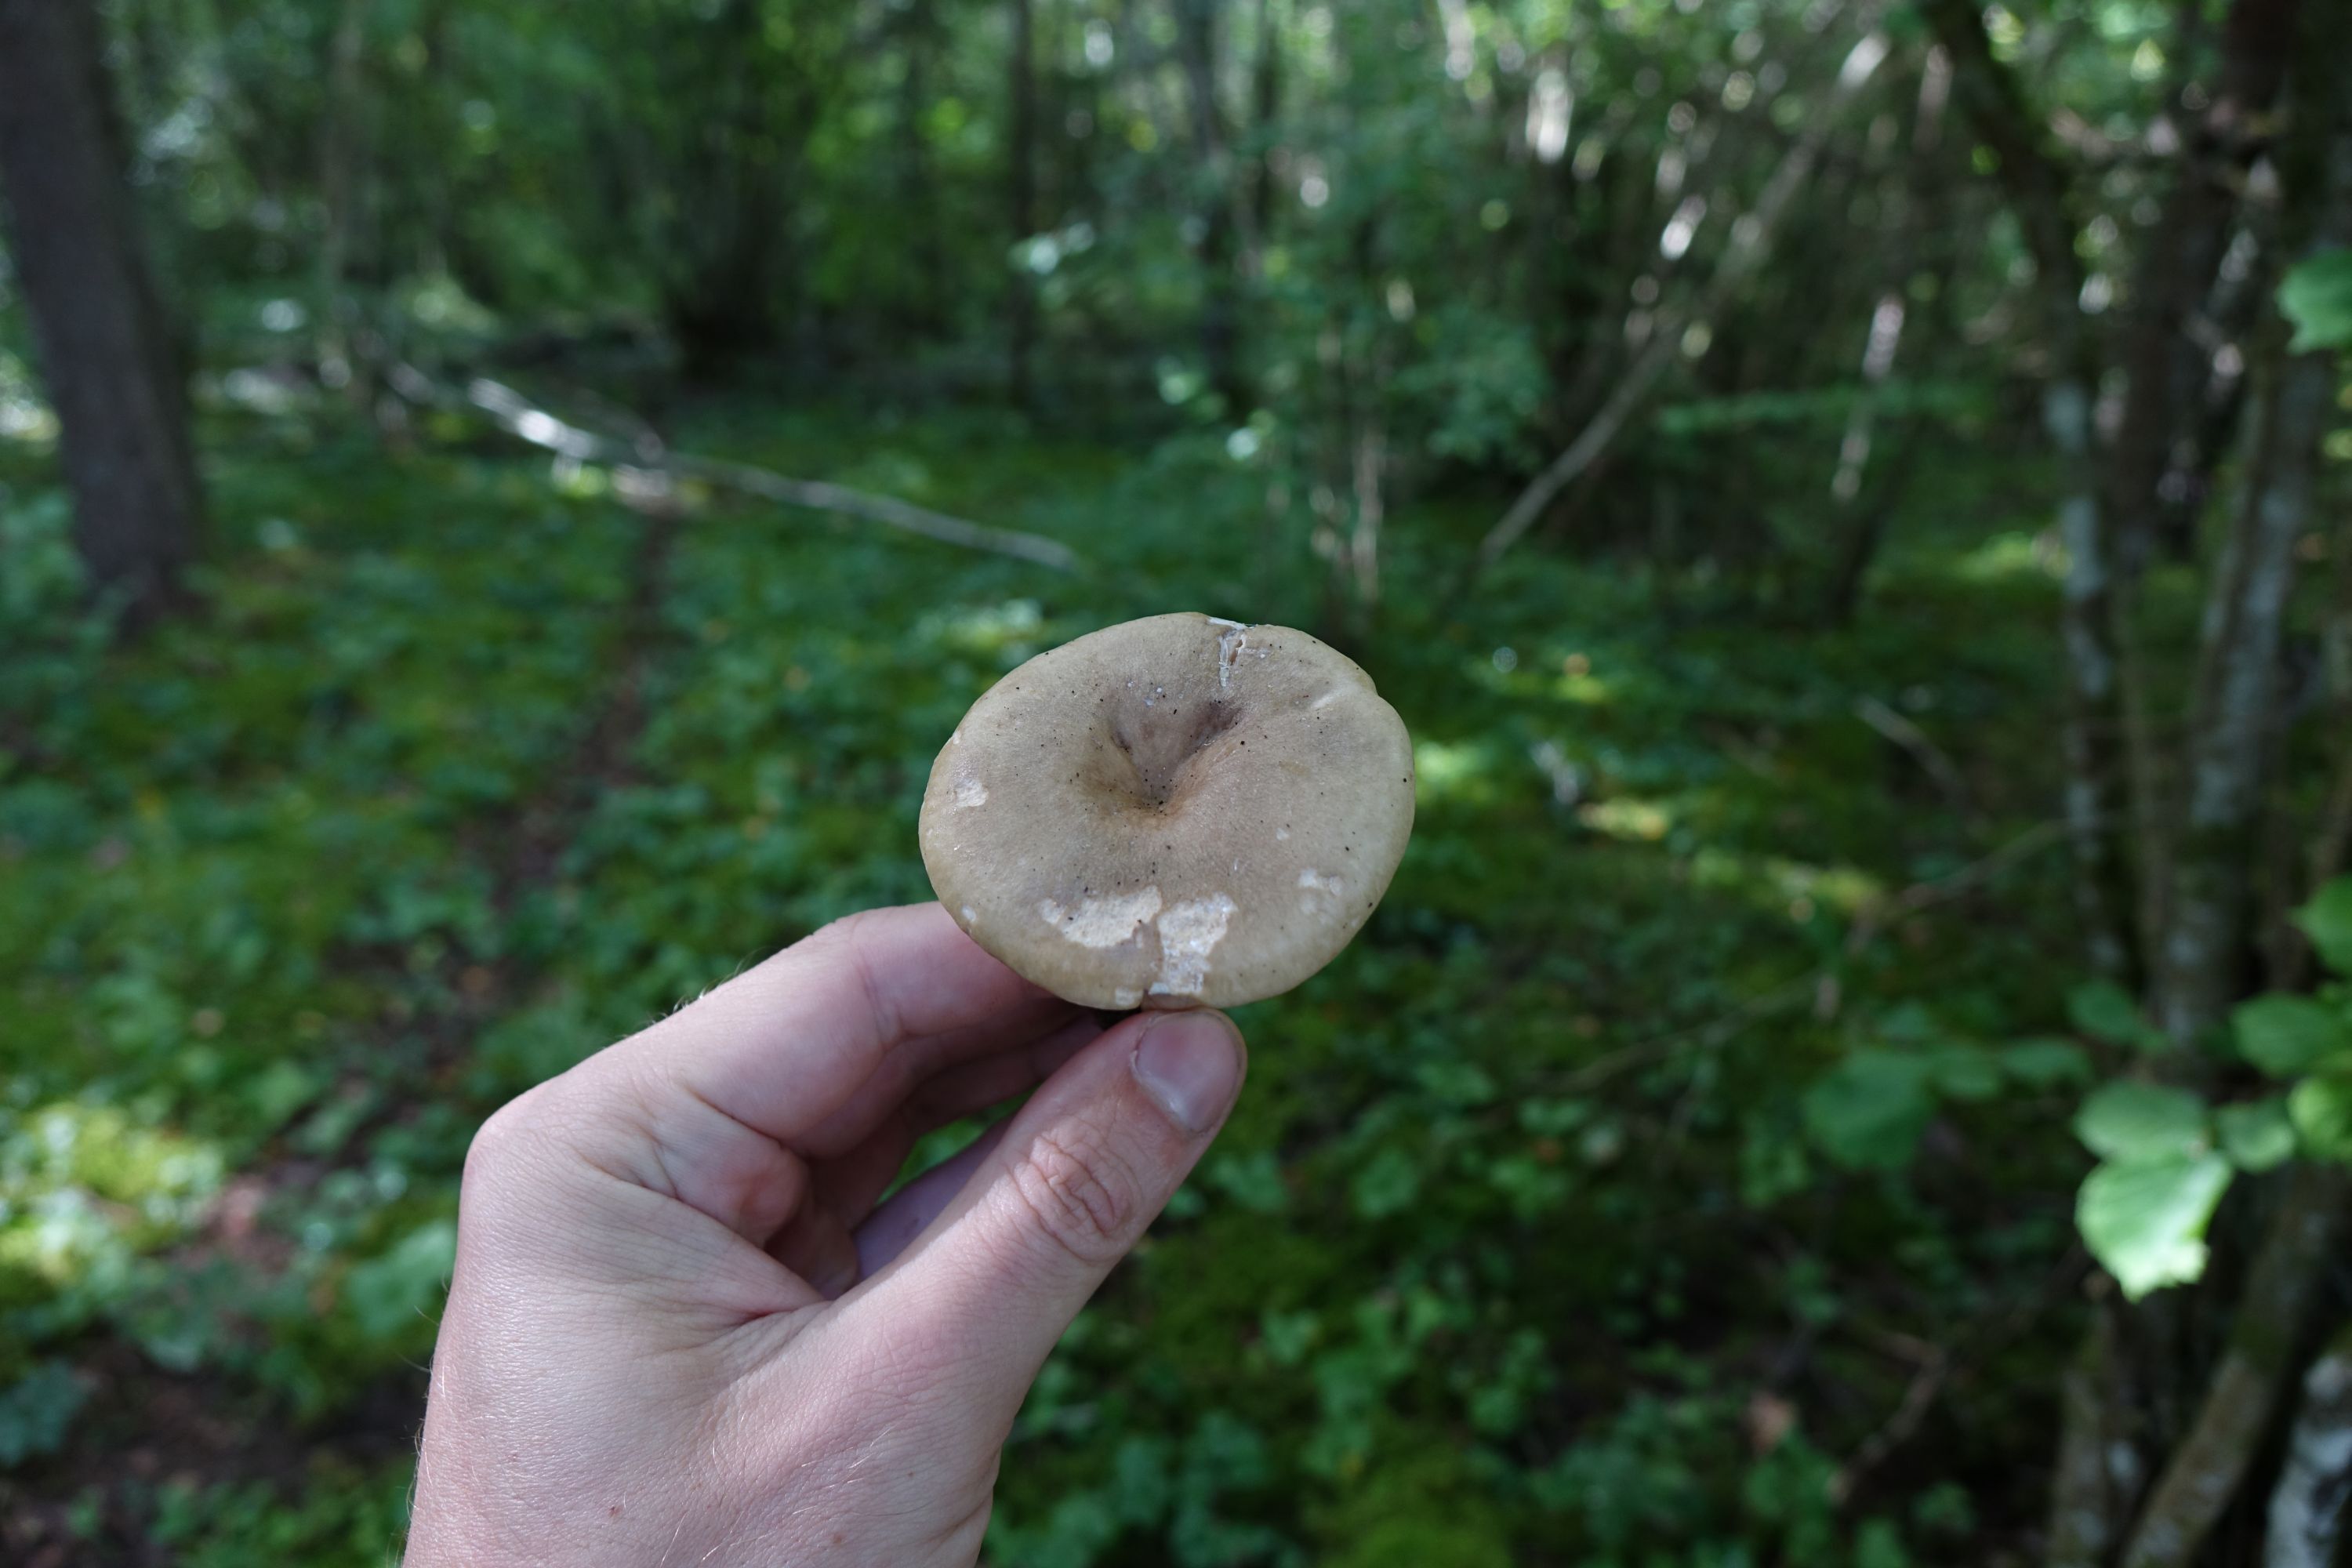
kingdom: Fungi
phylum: Basidiomycota
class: Agaricomycetes
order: Russulales
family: Russulaceae
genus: Lactarius
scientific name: Lactarius pyrogalus
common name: Fiery milkcap
